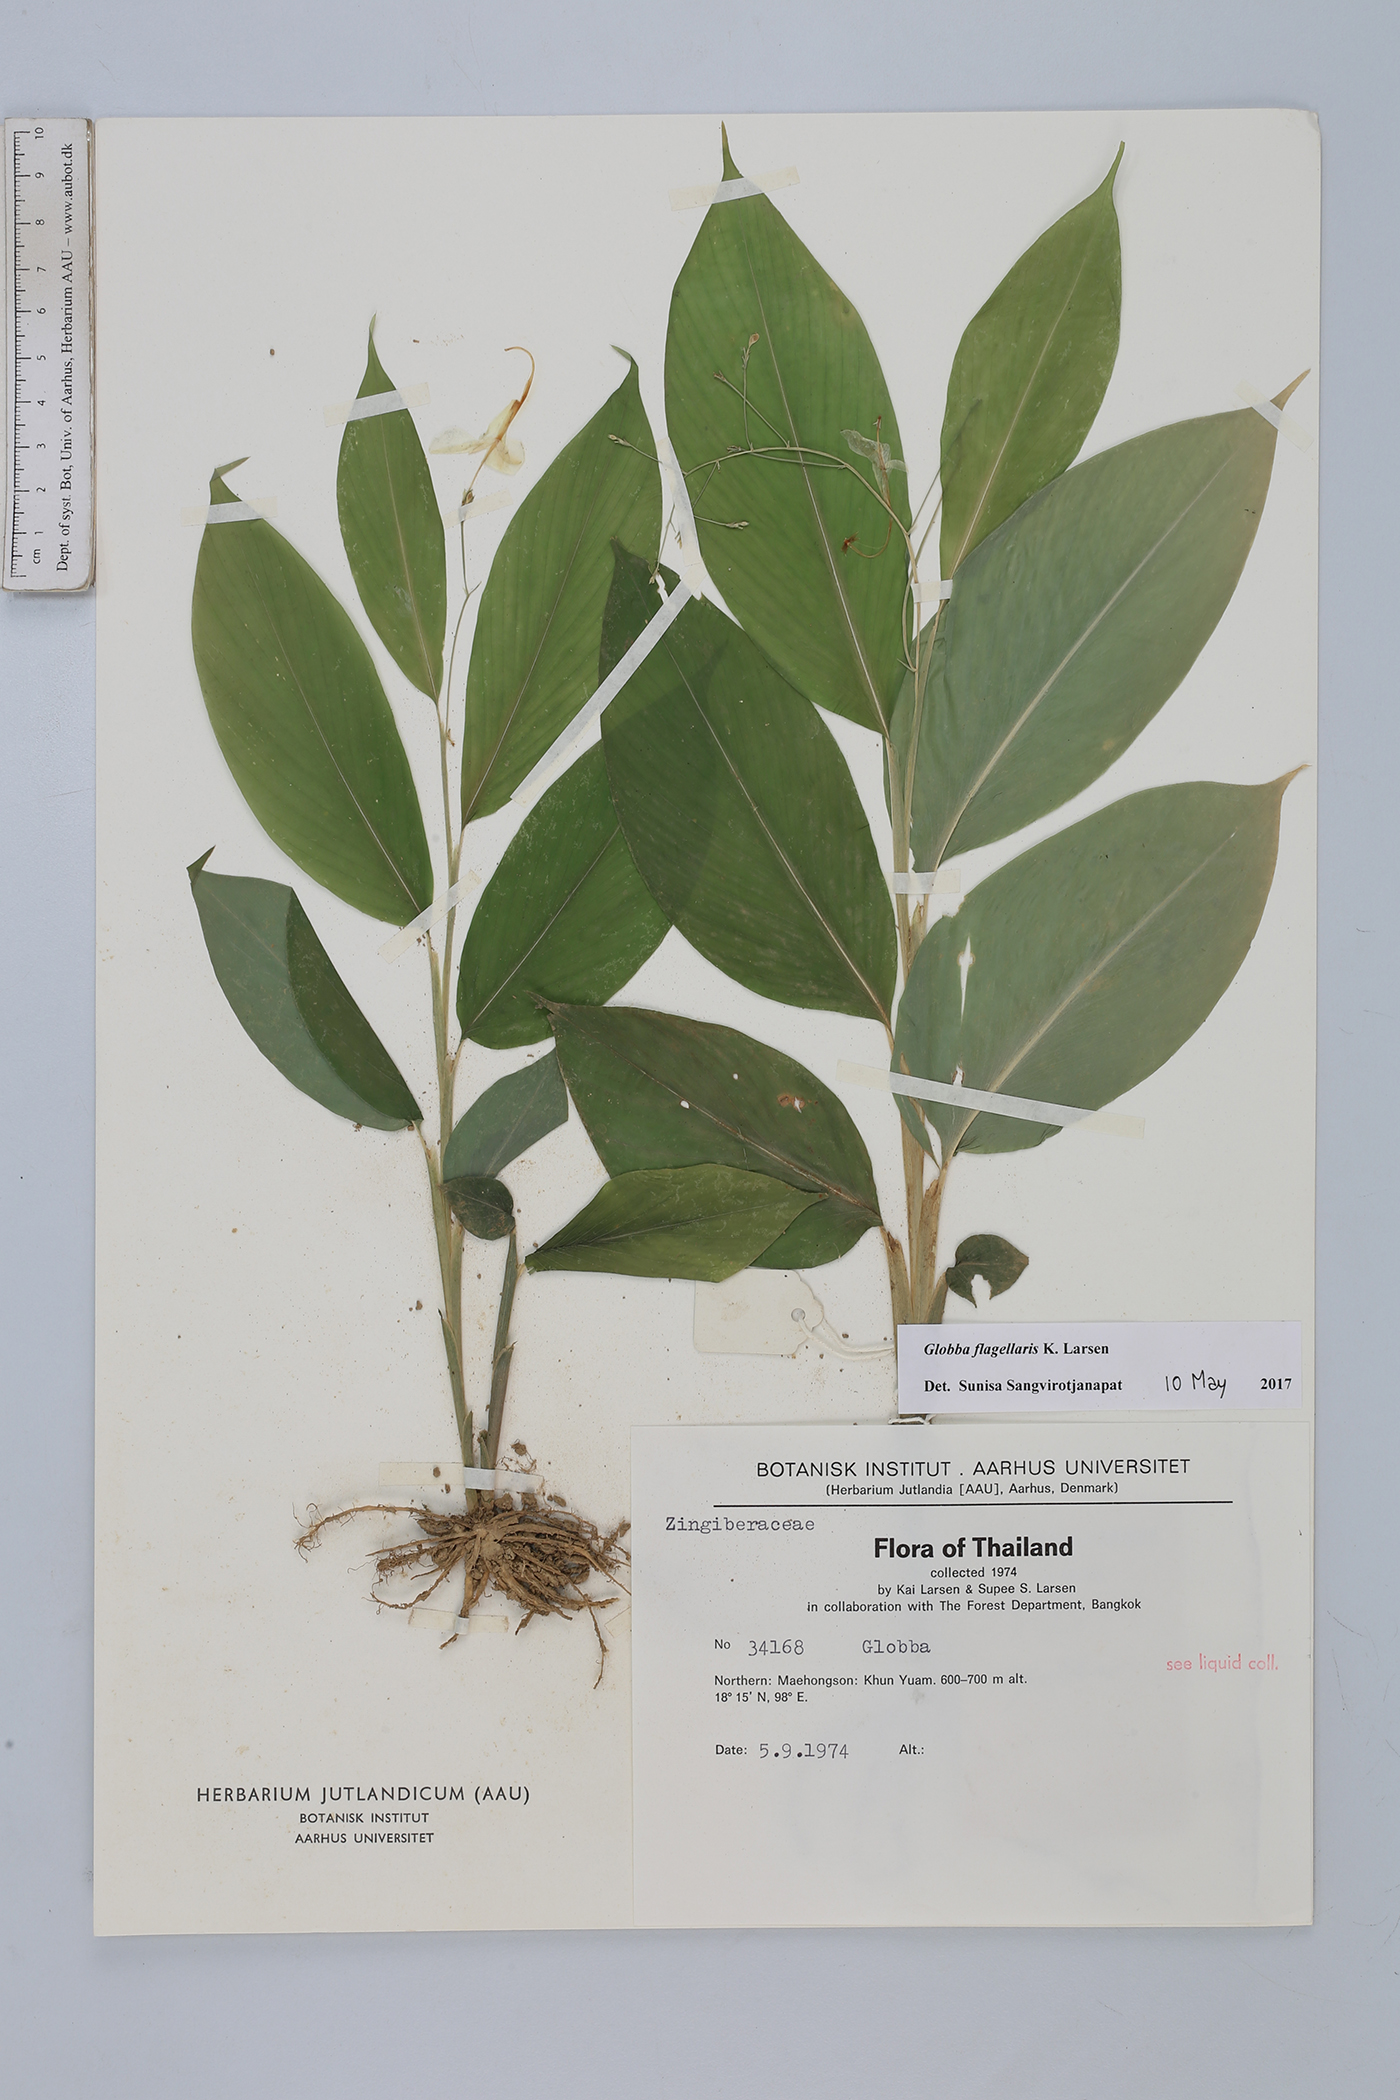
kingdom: Plantae
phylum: Tracheophyta
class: Liliopsida
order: Zingiberales
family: Zingiberaceae
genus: Globba
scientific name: Globba flagellaris
